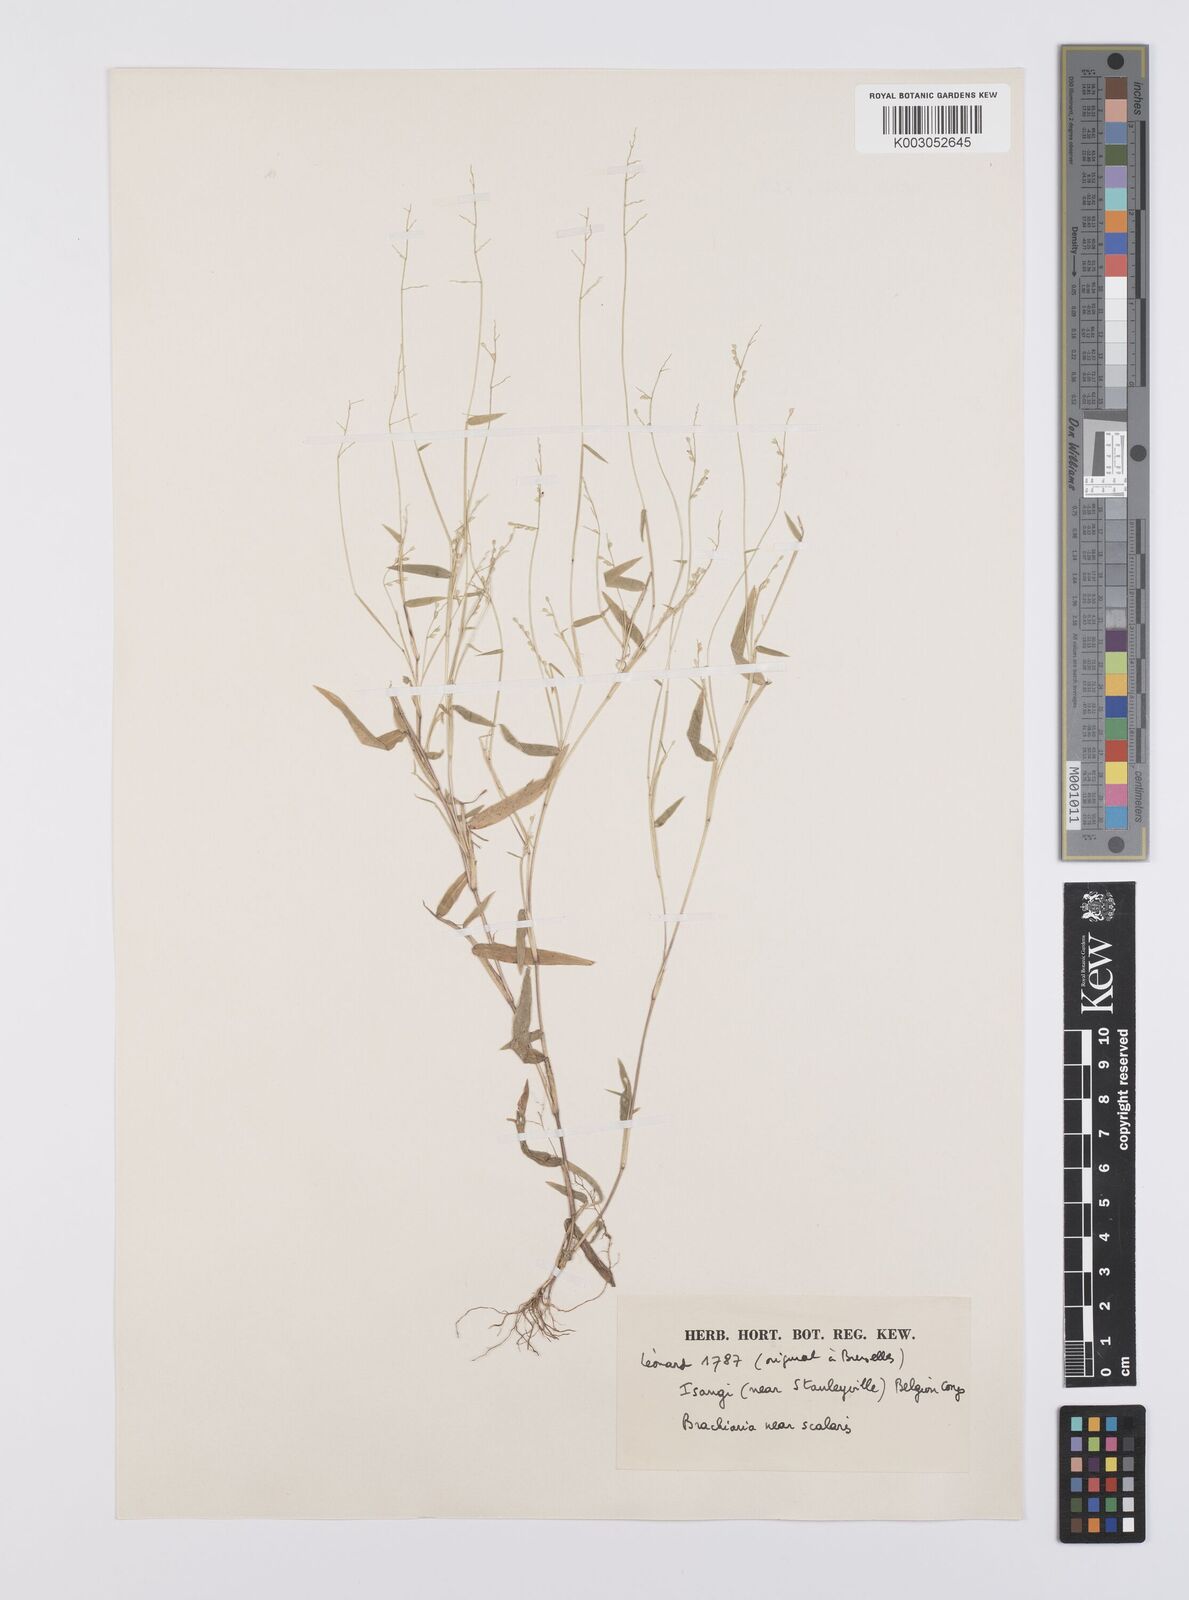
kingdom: Plantae
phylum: Tracheophyta
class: Liliopsida
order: Poales
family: Poaceae
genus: Urochloa
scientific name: Urochloa comata
